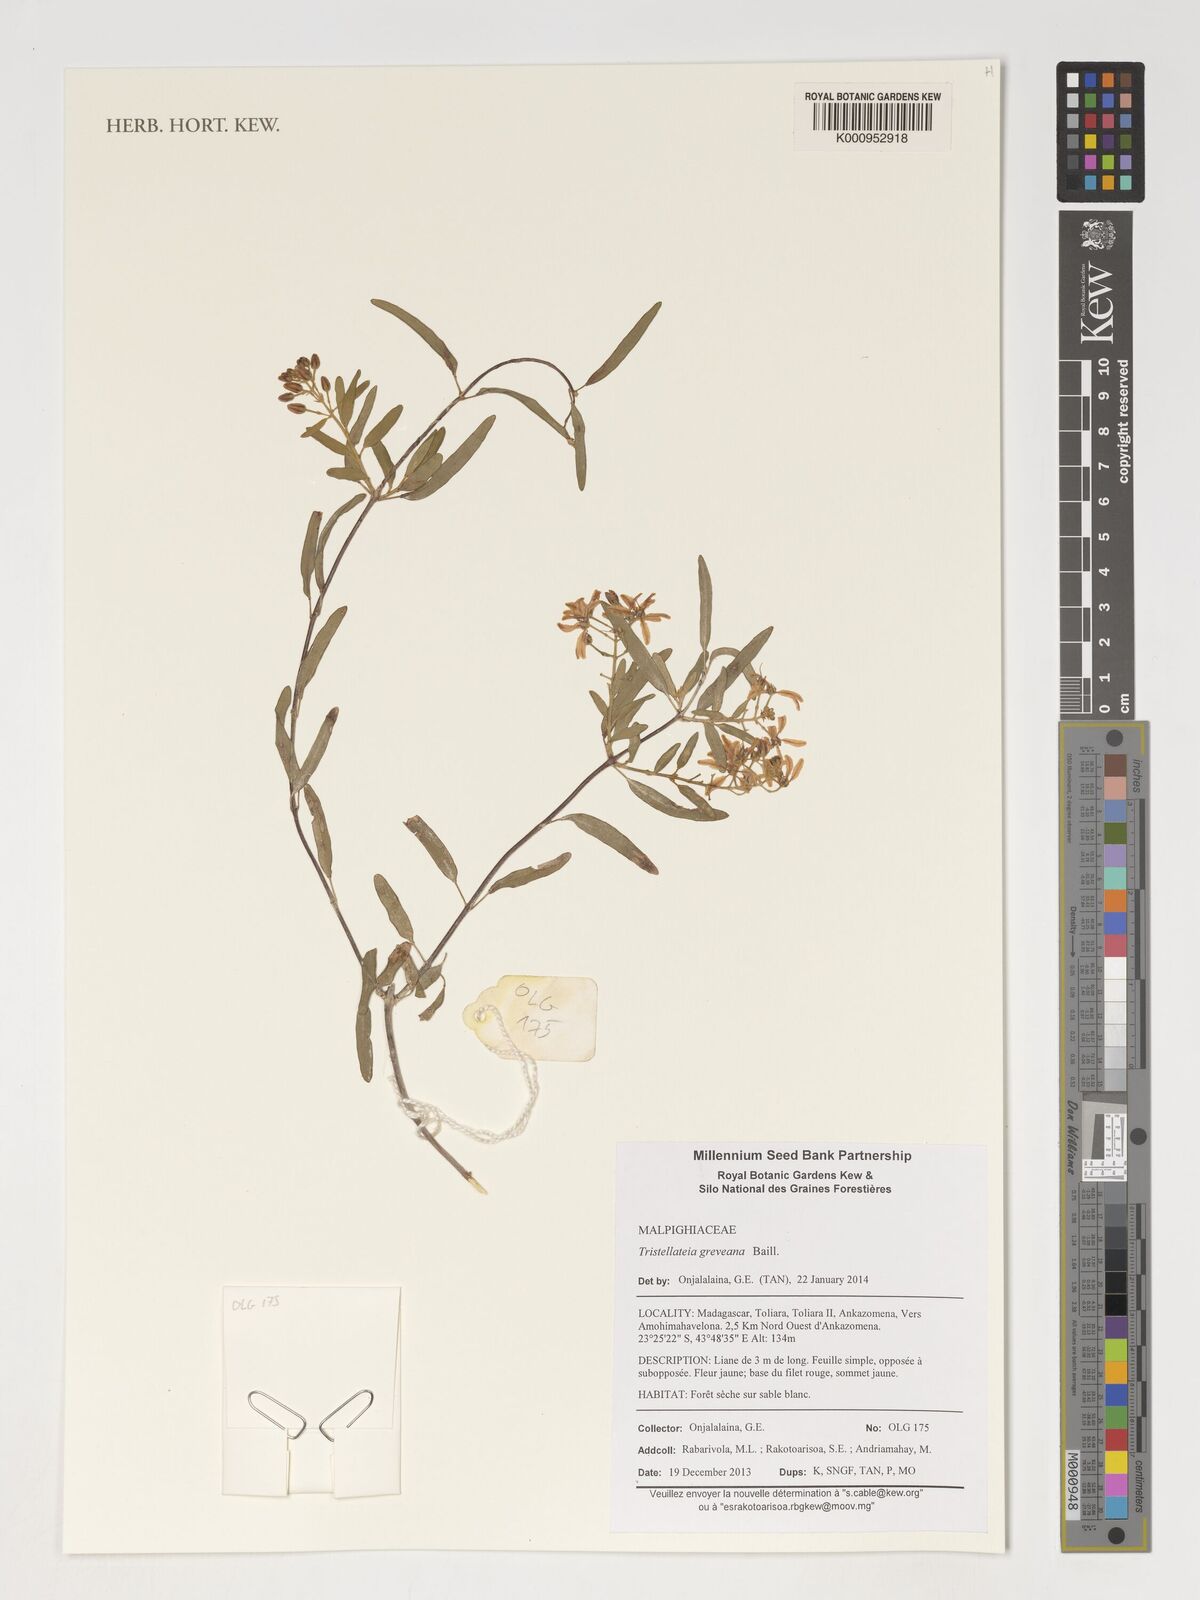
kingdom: Plantae
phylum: Tracheophyta
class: Magnoliopsida
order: Malpighiales
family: Malpighiaceae
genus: Tristellateia
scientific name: Tristellateia greveana
